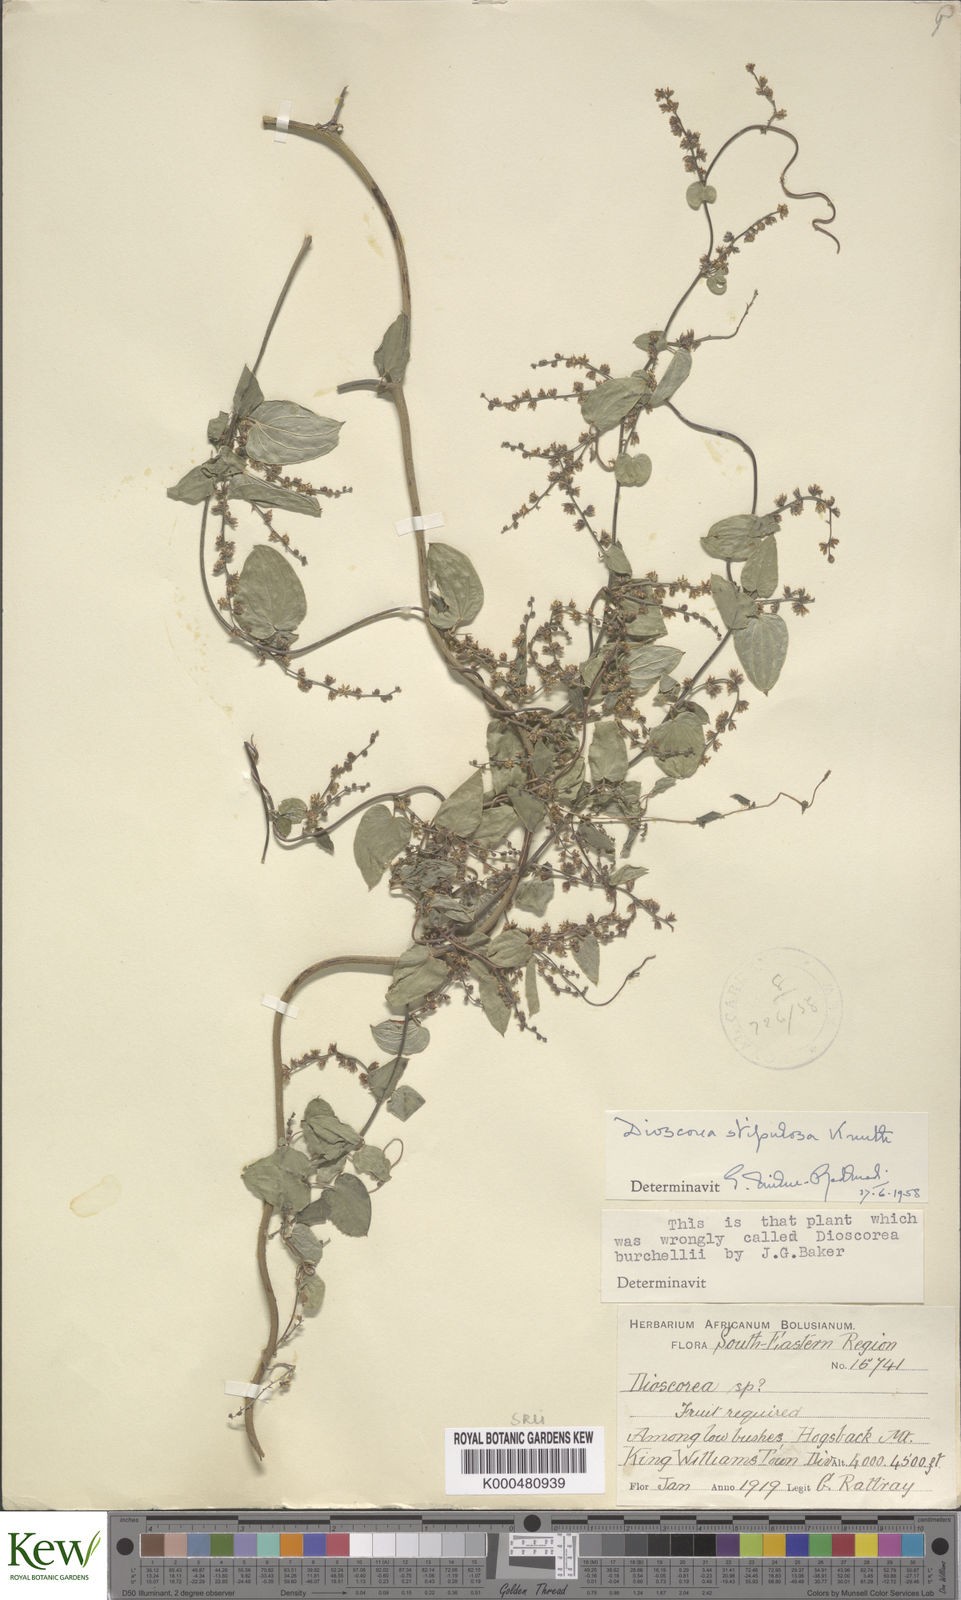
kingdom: Plantae
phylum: Tracheophyta
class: Liliopsida
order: Dioscoreales
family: Dioscoreaceae
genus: Dioscorea
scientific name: Dioscorea stipulosa
